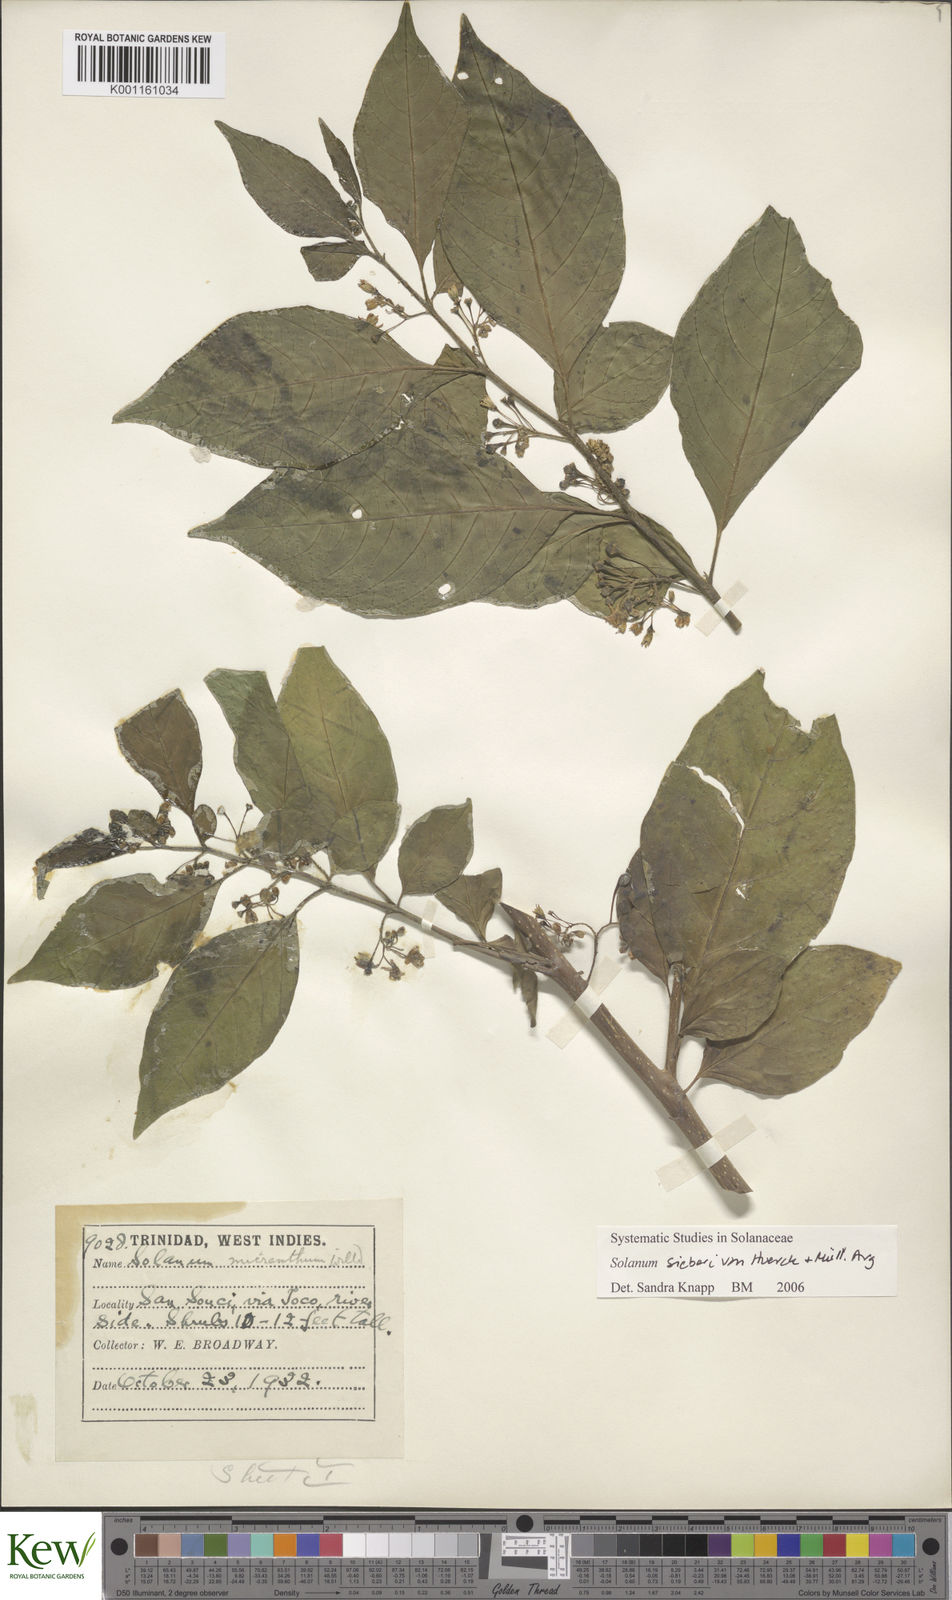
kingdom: Plantae
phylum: Tracheophyta
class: Magnoliopsida
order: Solanales
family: Solanaceae
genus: Solanum
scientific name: Solanum nudum
